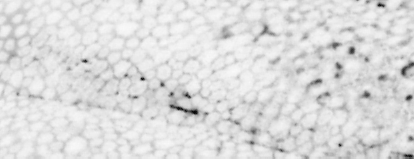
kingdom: Animalia
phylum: Chordata
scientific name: Chordata
